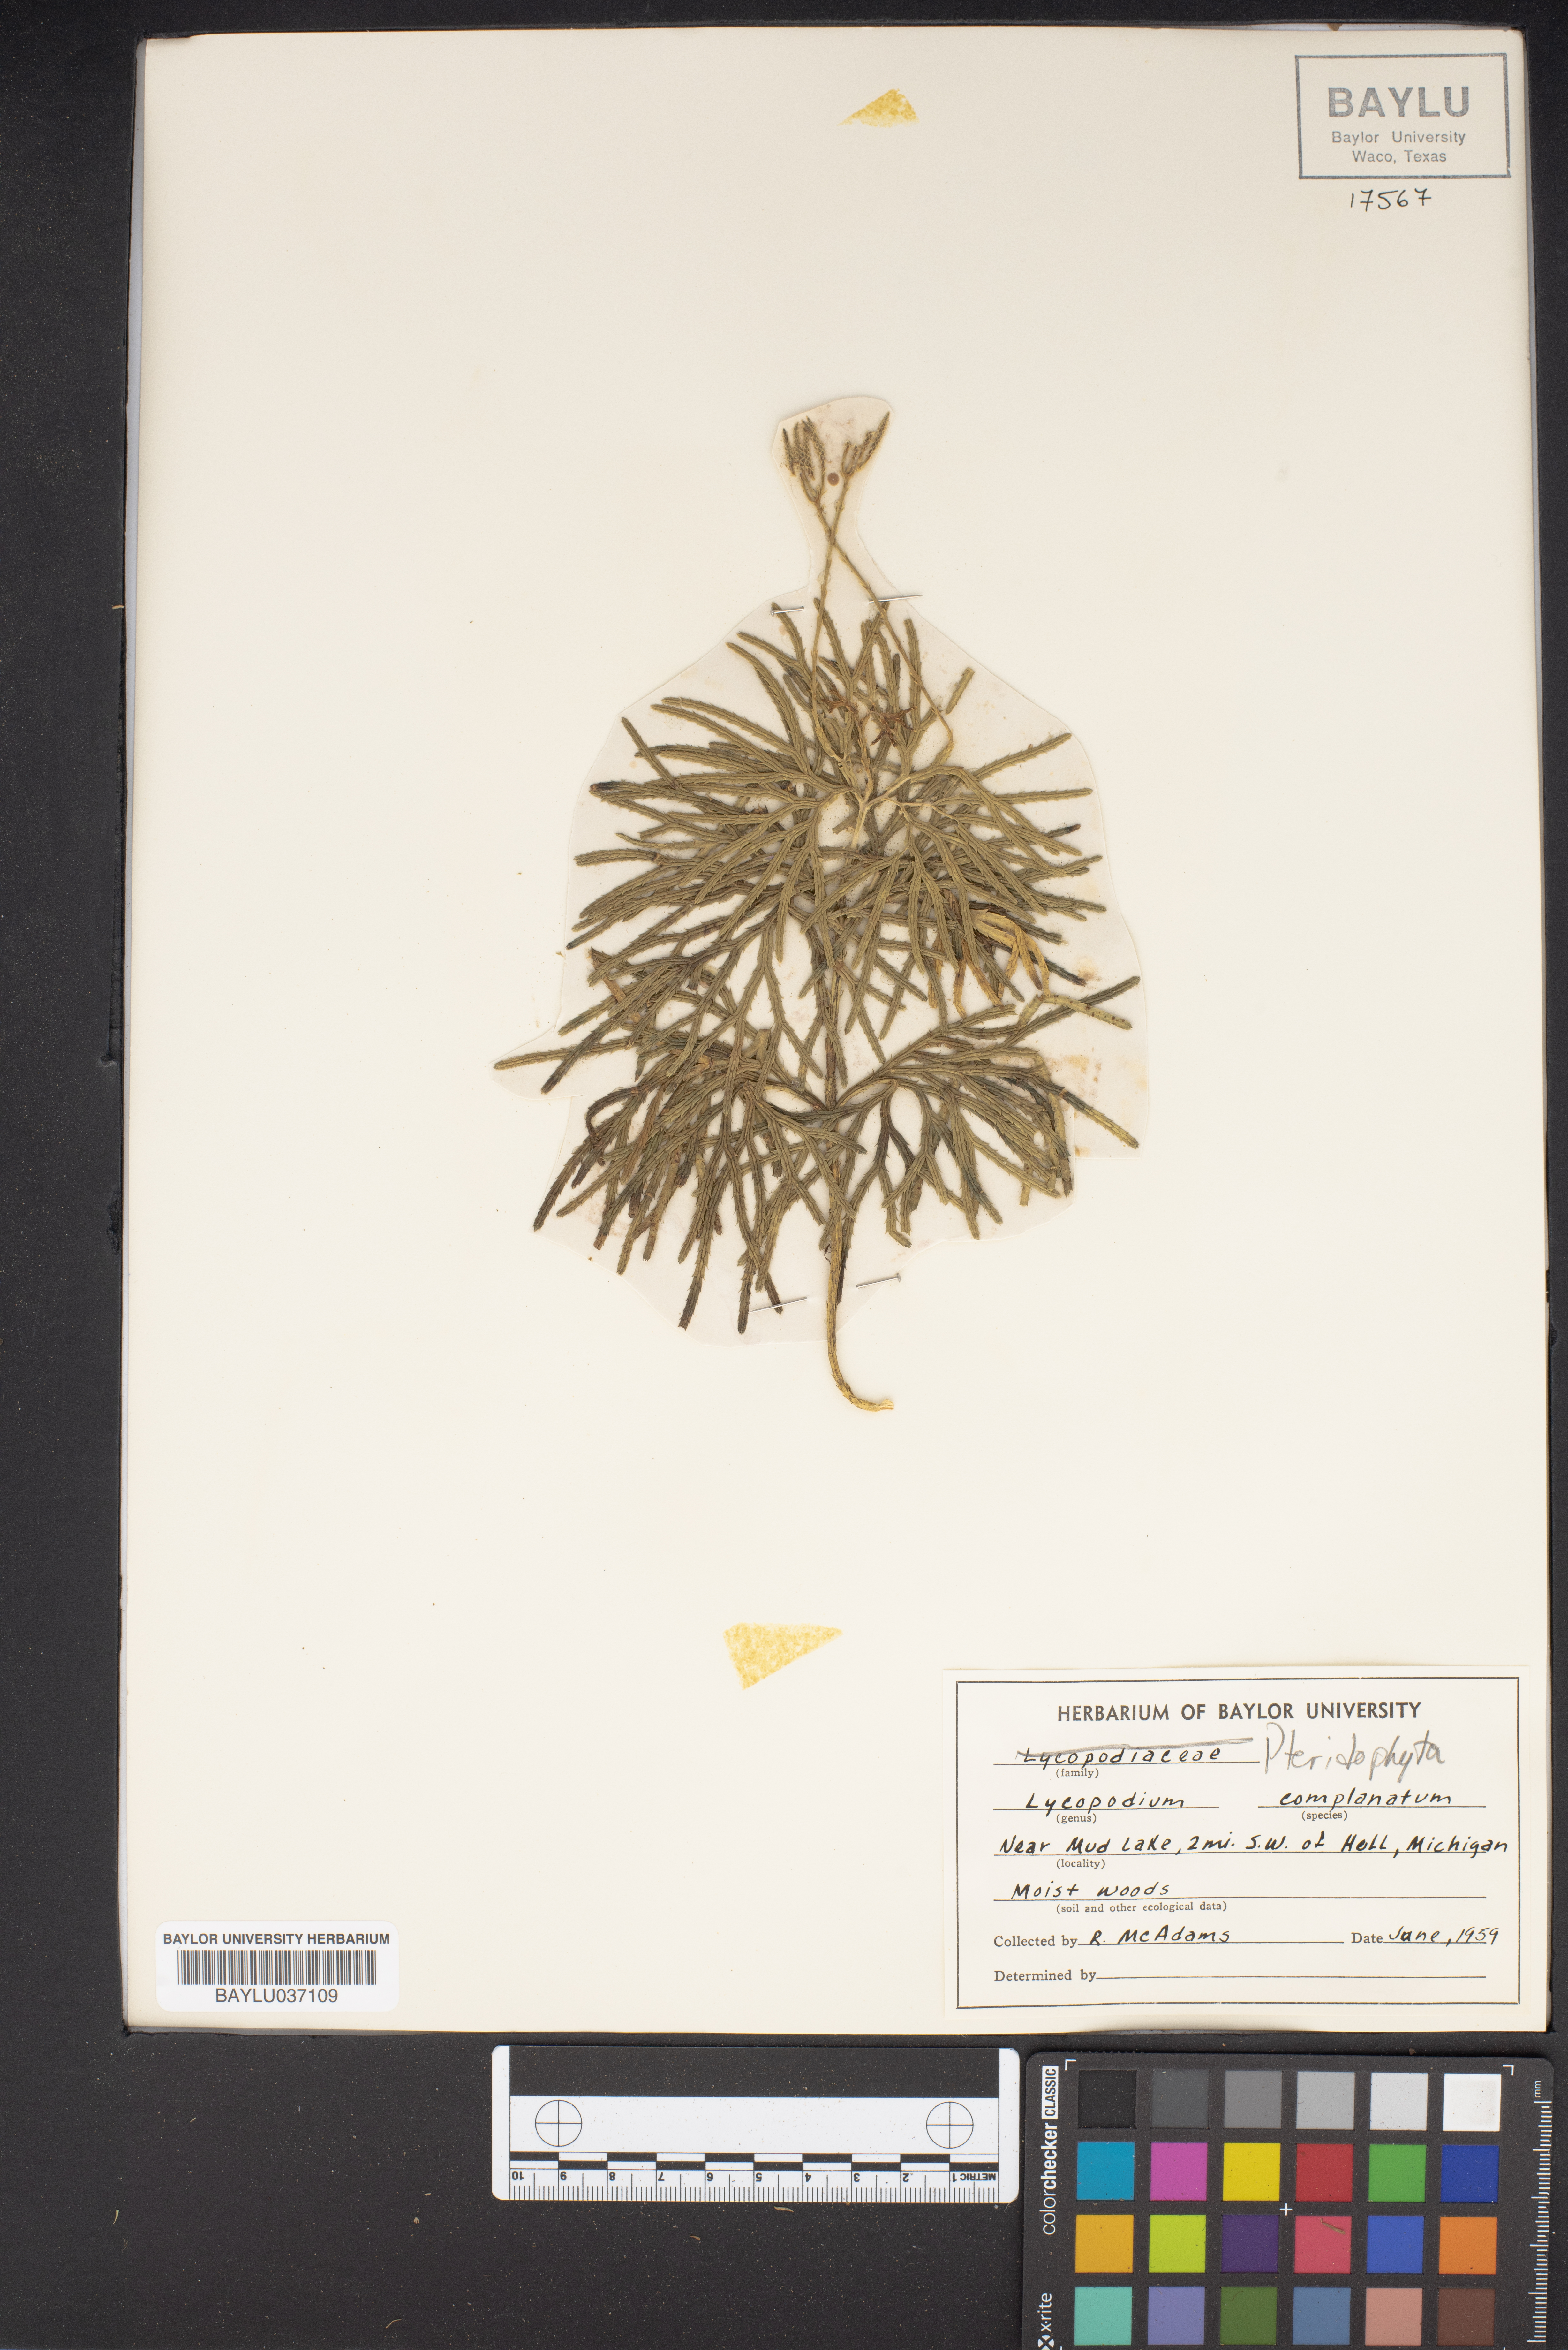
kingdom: Plantae
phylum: Tracheophyta
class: Lycopodiopsida
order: Lycopodiales
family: Lycopodiaceae
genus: Diphasiastrum
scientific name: Diphasiastrum complanatum
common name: Northern running-pine
